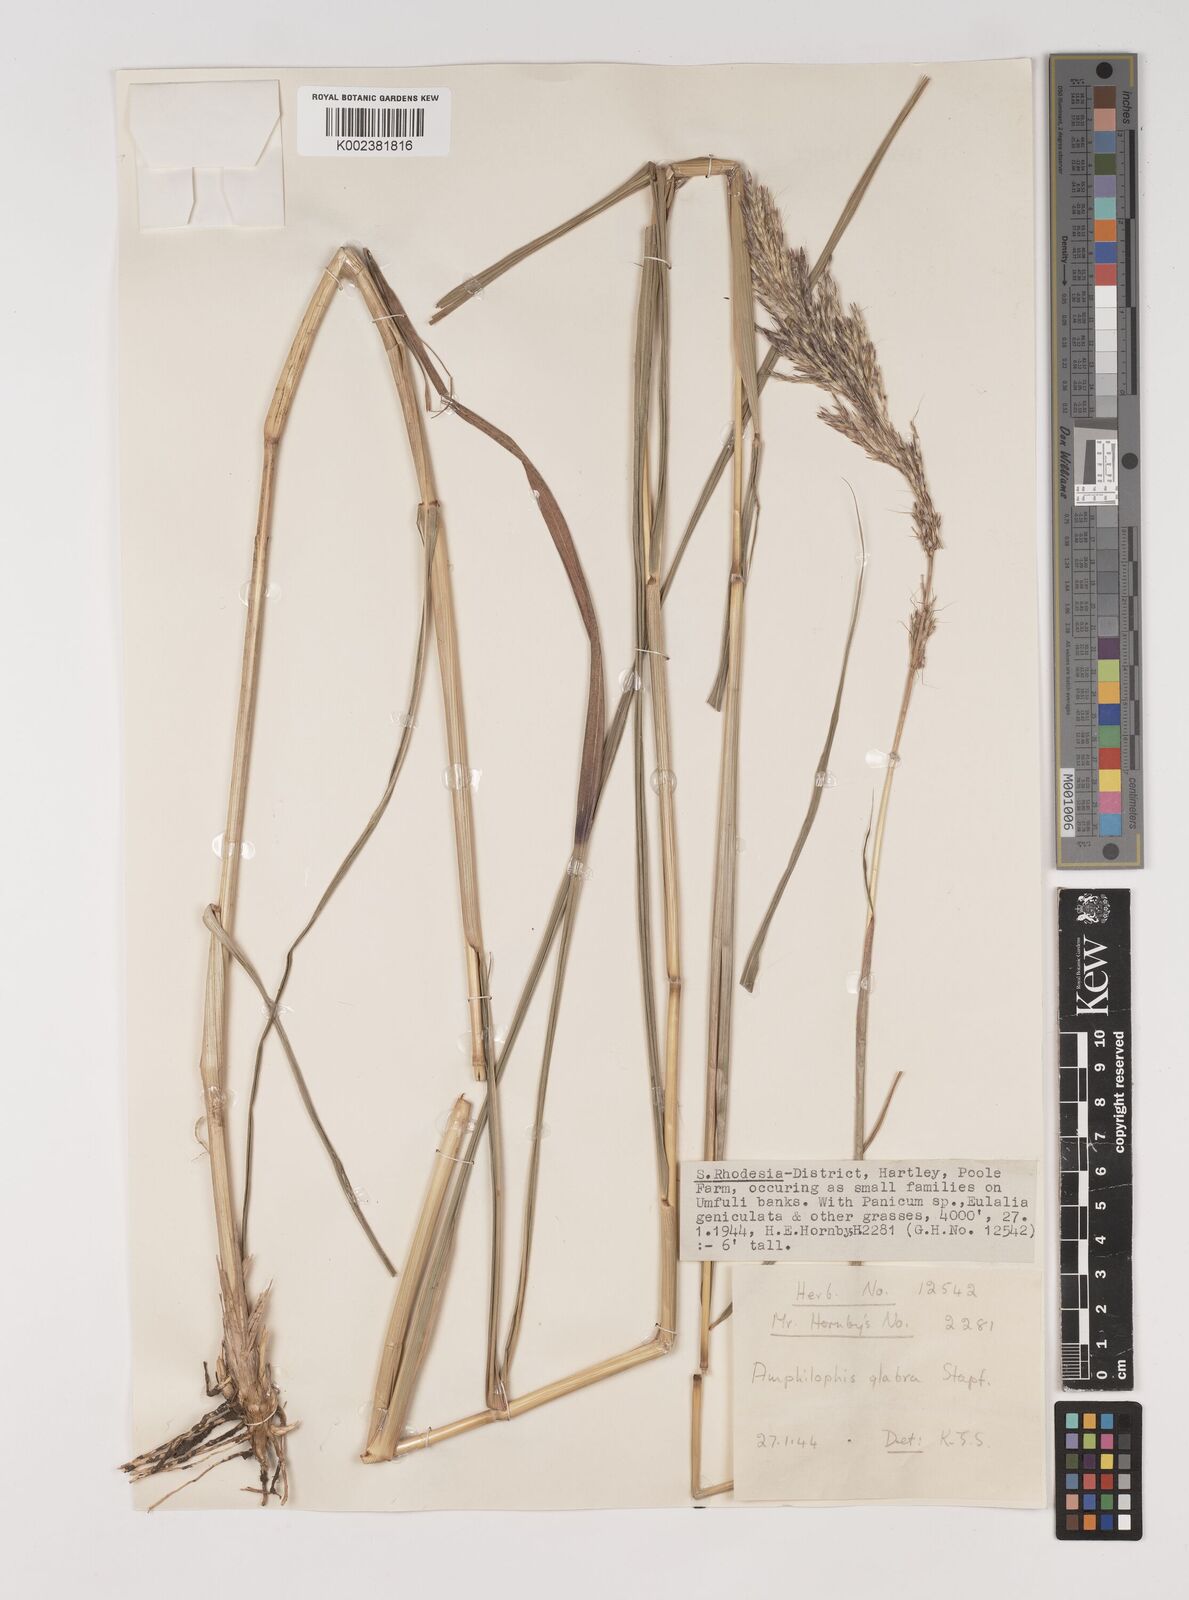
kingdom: Plantae
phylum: Tracheophyta
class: Liliopsida
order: Poales
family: Poaceae
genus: Bothriochloa
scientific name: Bothriochloa bladhii
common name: Caucasian bluestem
